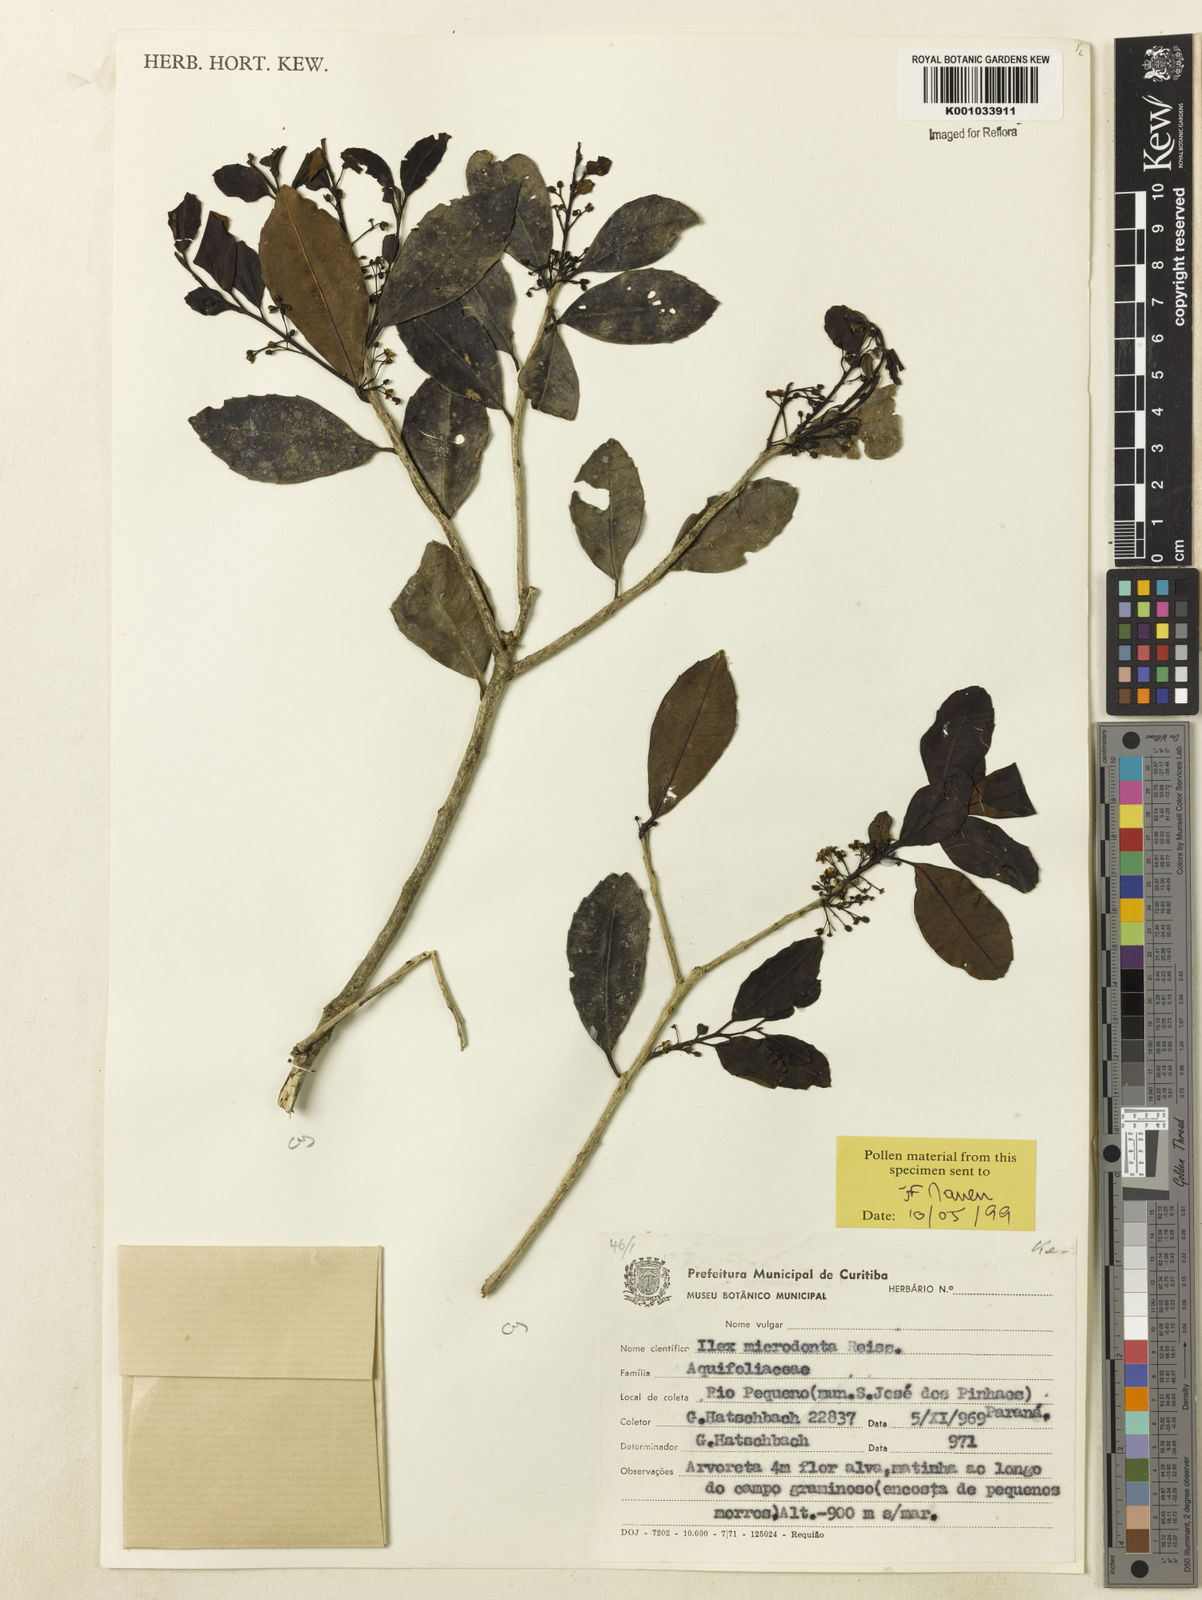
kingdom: Plantae
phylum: Tracheophyta
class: Magnoliopsida
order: Aquifoliales
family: Aquifoliaceae
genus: Ilex
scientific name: Ilex microdonta
